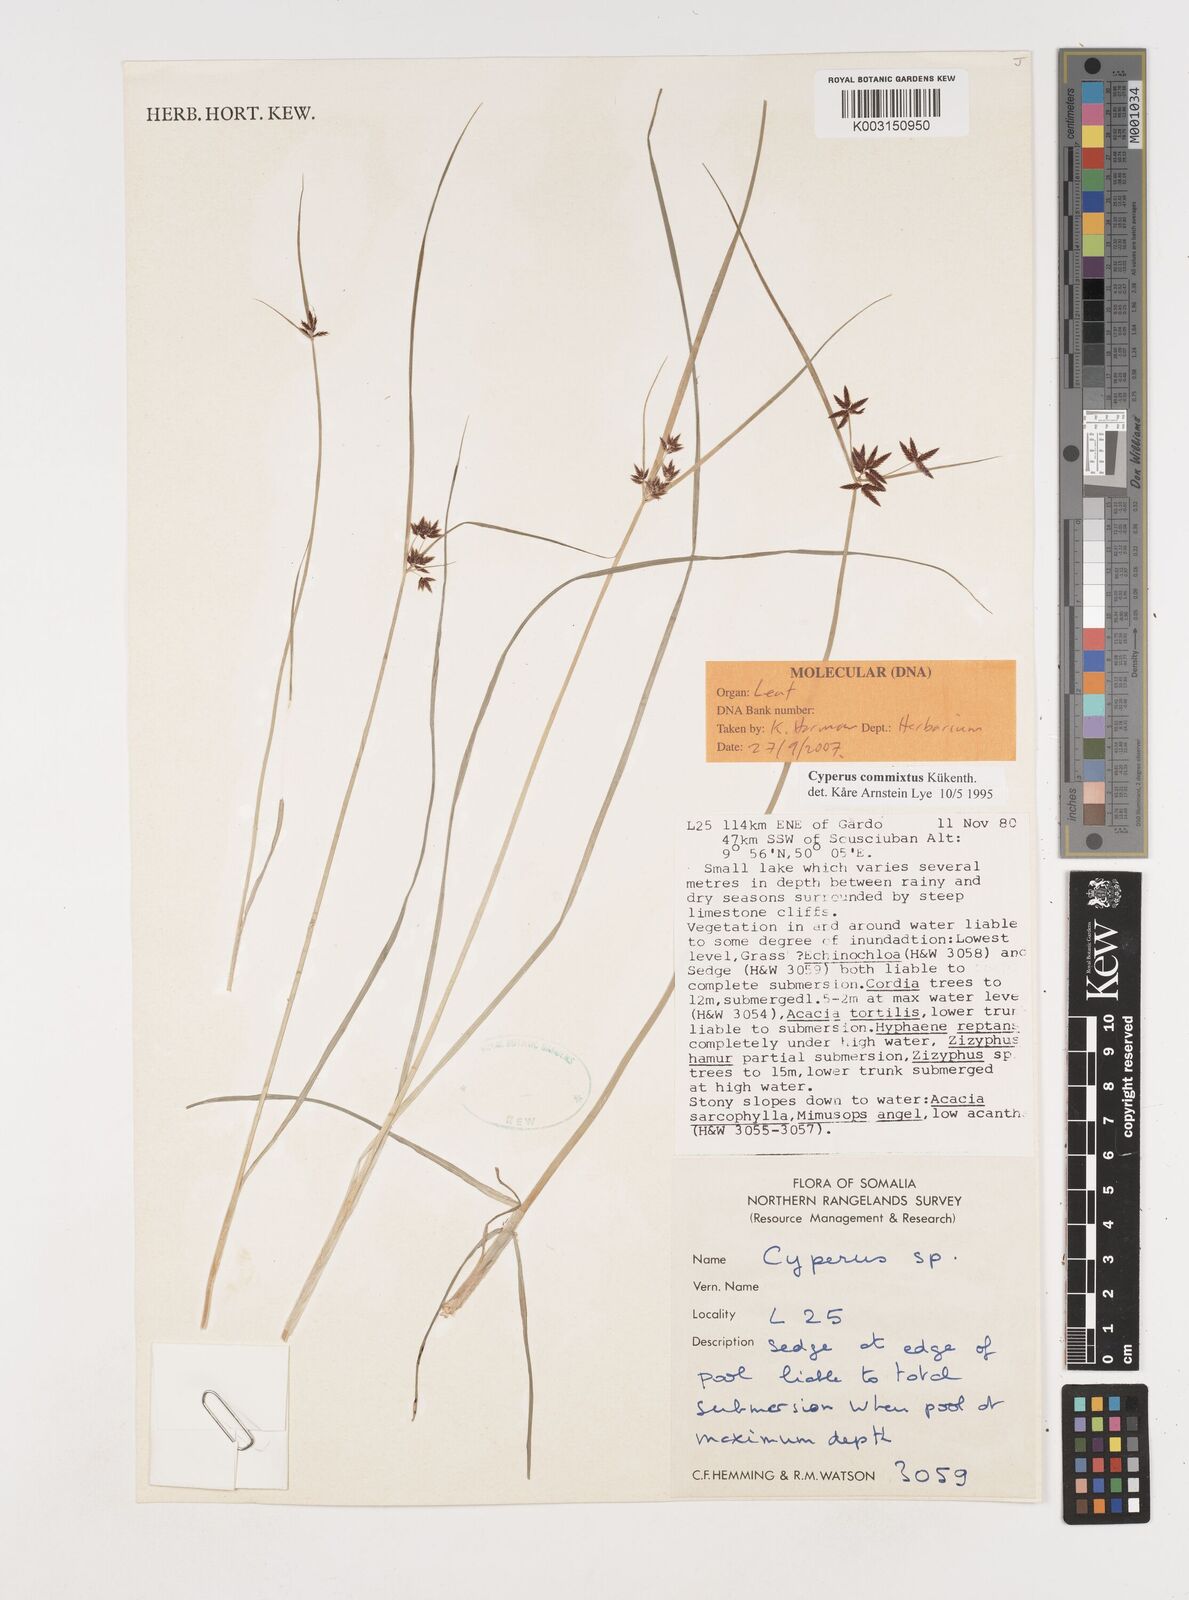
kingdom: Plantae
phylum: Tracheophyta
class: Liliopsida
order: Poales
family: Cyperaceae
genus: Cyperus
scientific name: Cyperus commixtus
